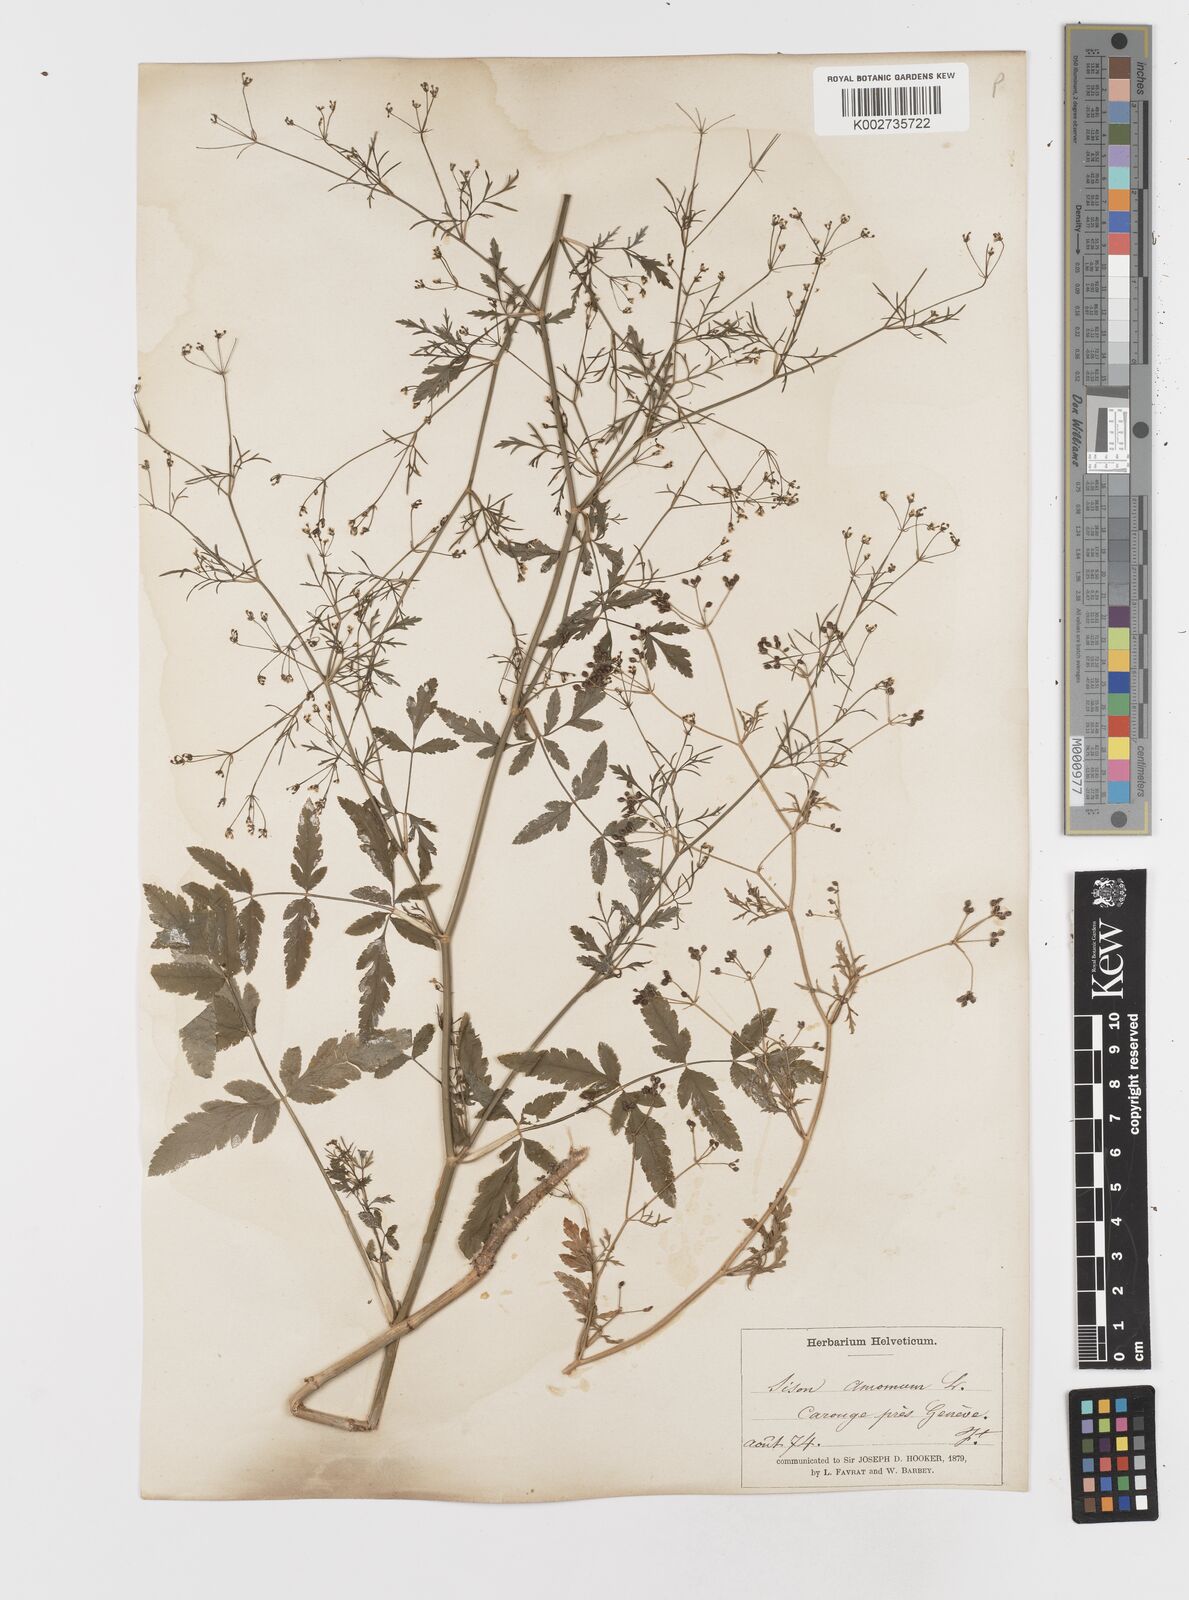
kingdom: Plantae
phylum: Tracheophyta
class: Magnoliopsida
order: Apiales
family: Apiaceae
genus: Sison
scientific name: Sison amomum
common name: Stone-parsley
